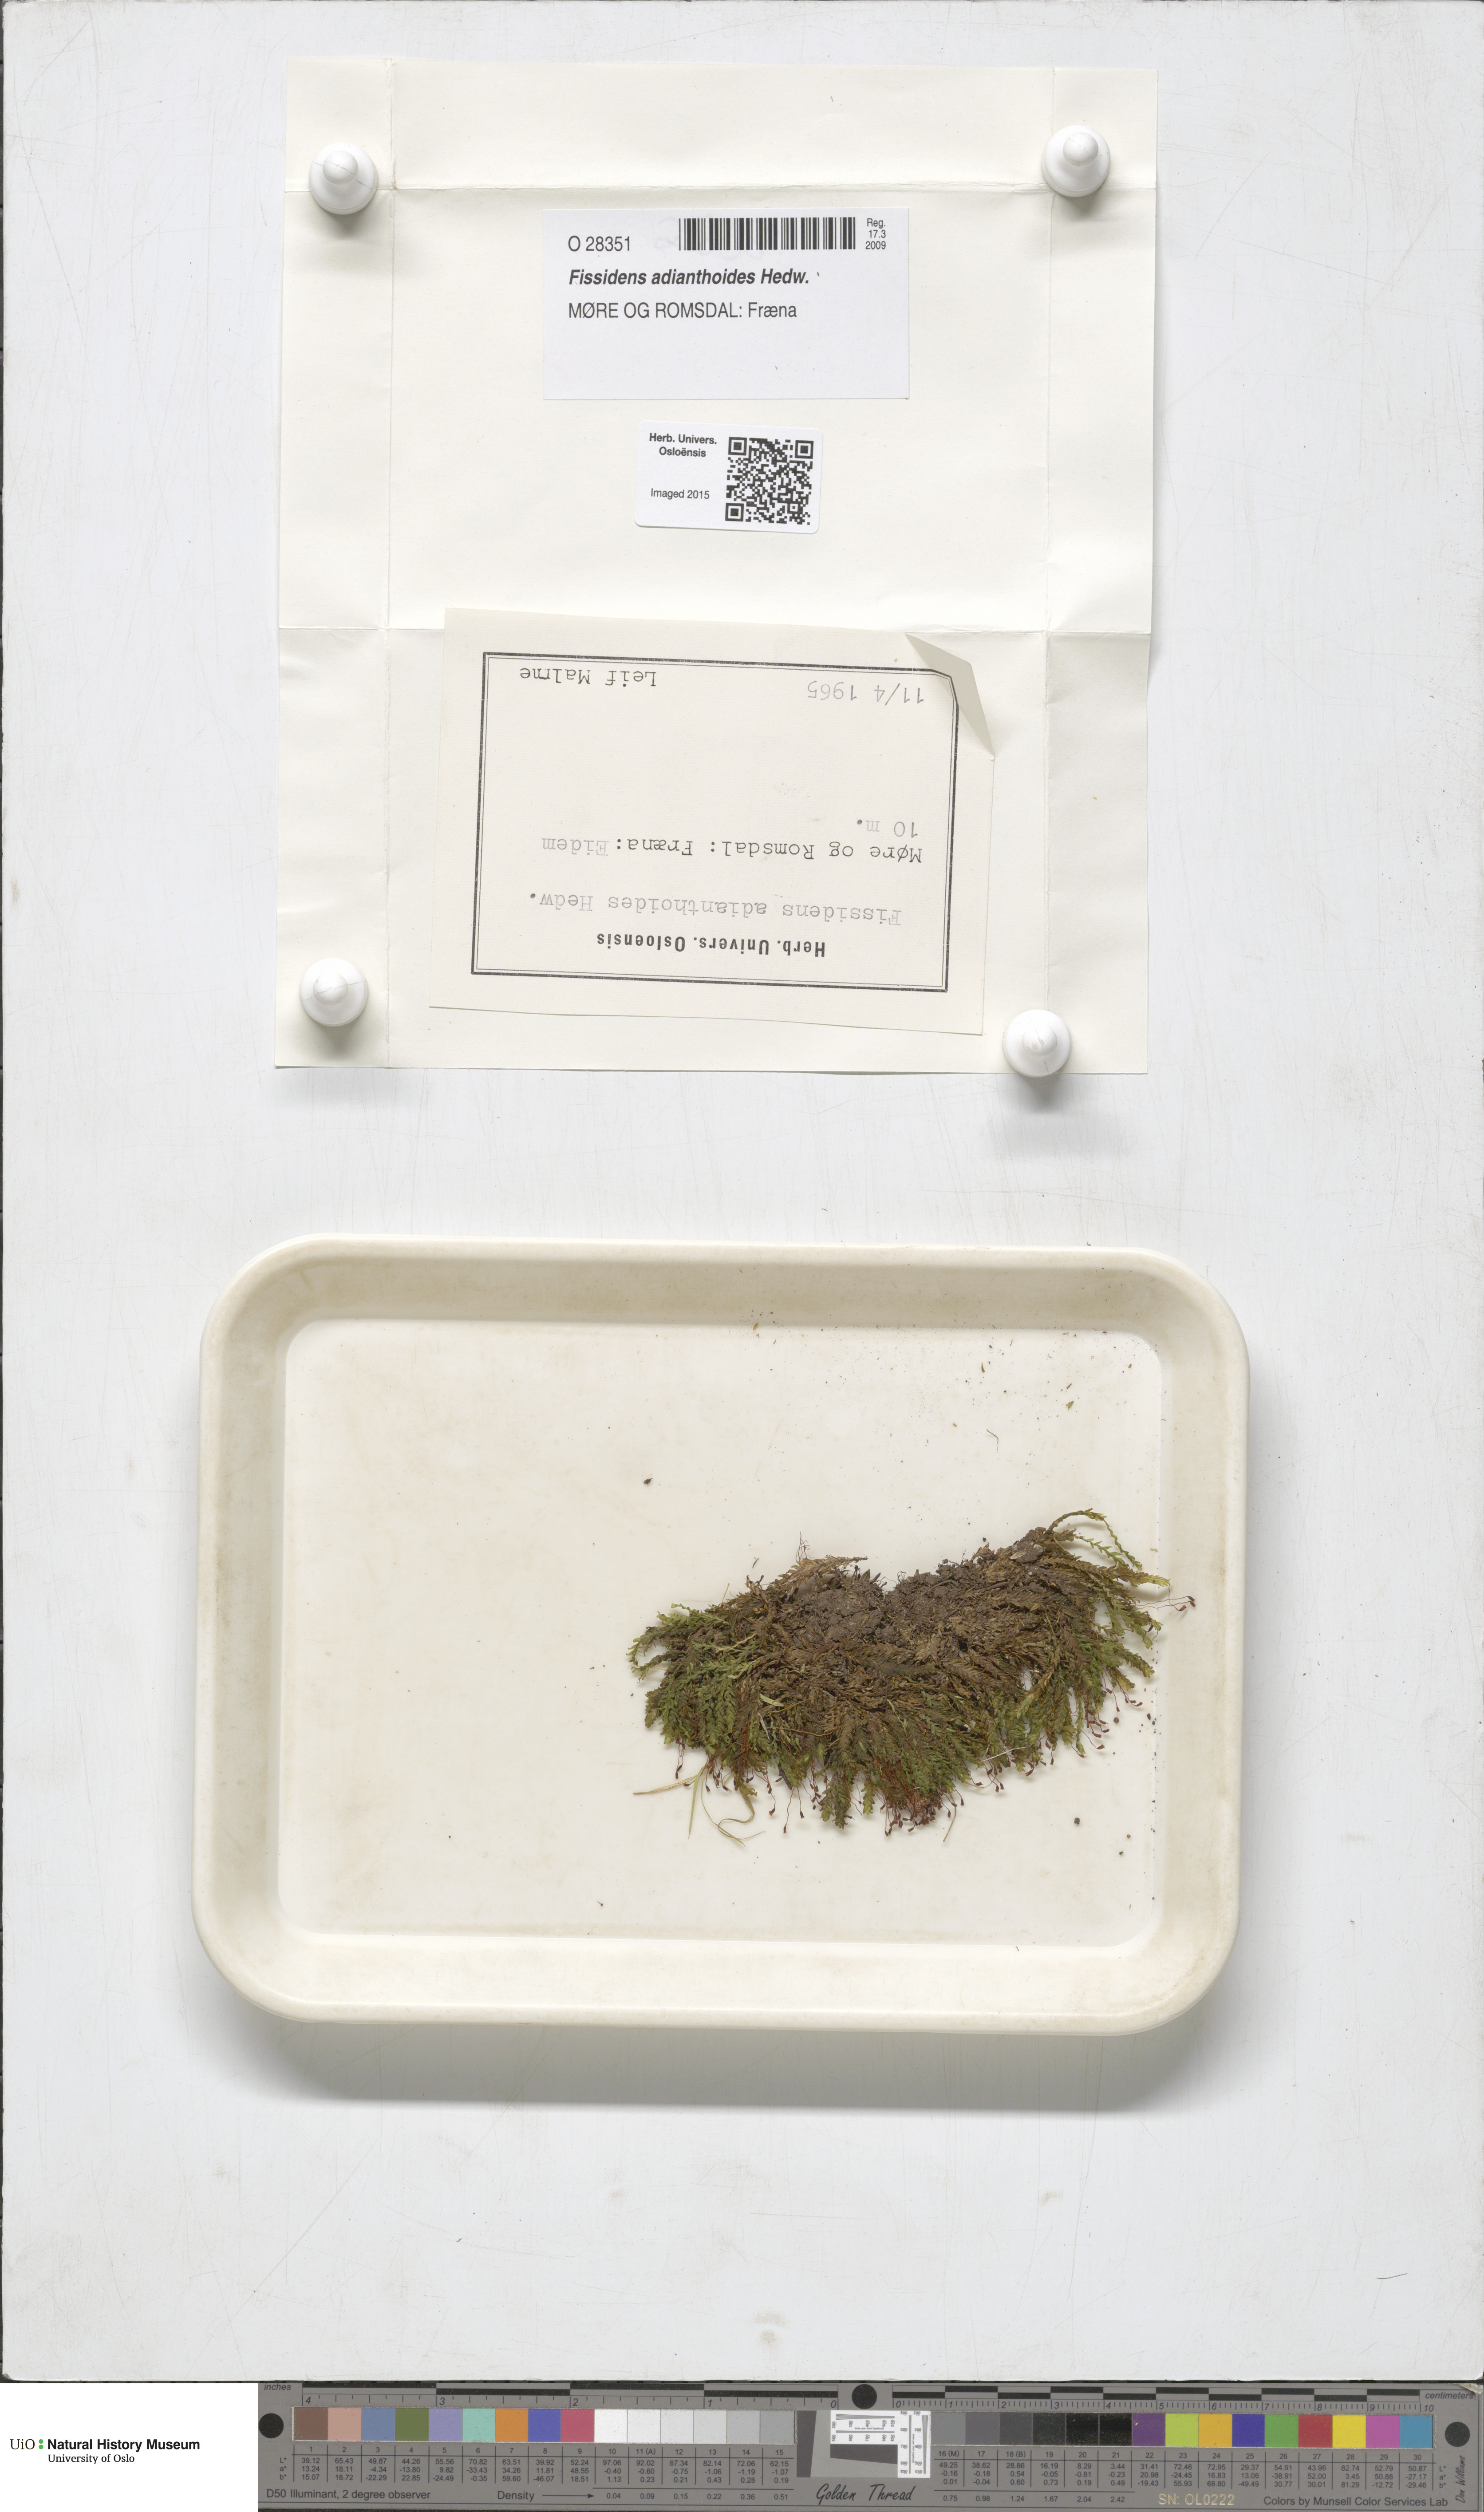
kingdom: Plantae
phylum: Bryophyta
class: Bryopsida
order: Dicranales
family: Fissidentaceae
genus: Fissidens
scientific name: Fissidens adianthoides
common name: Maidenhair pocket moss
